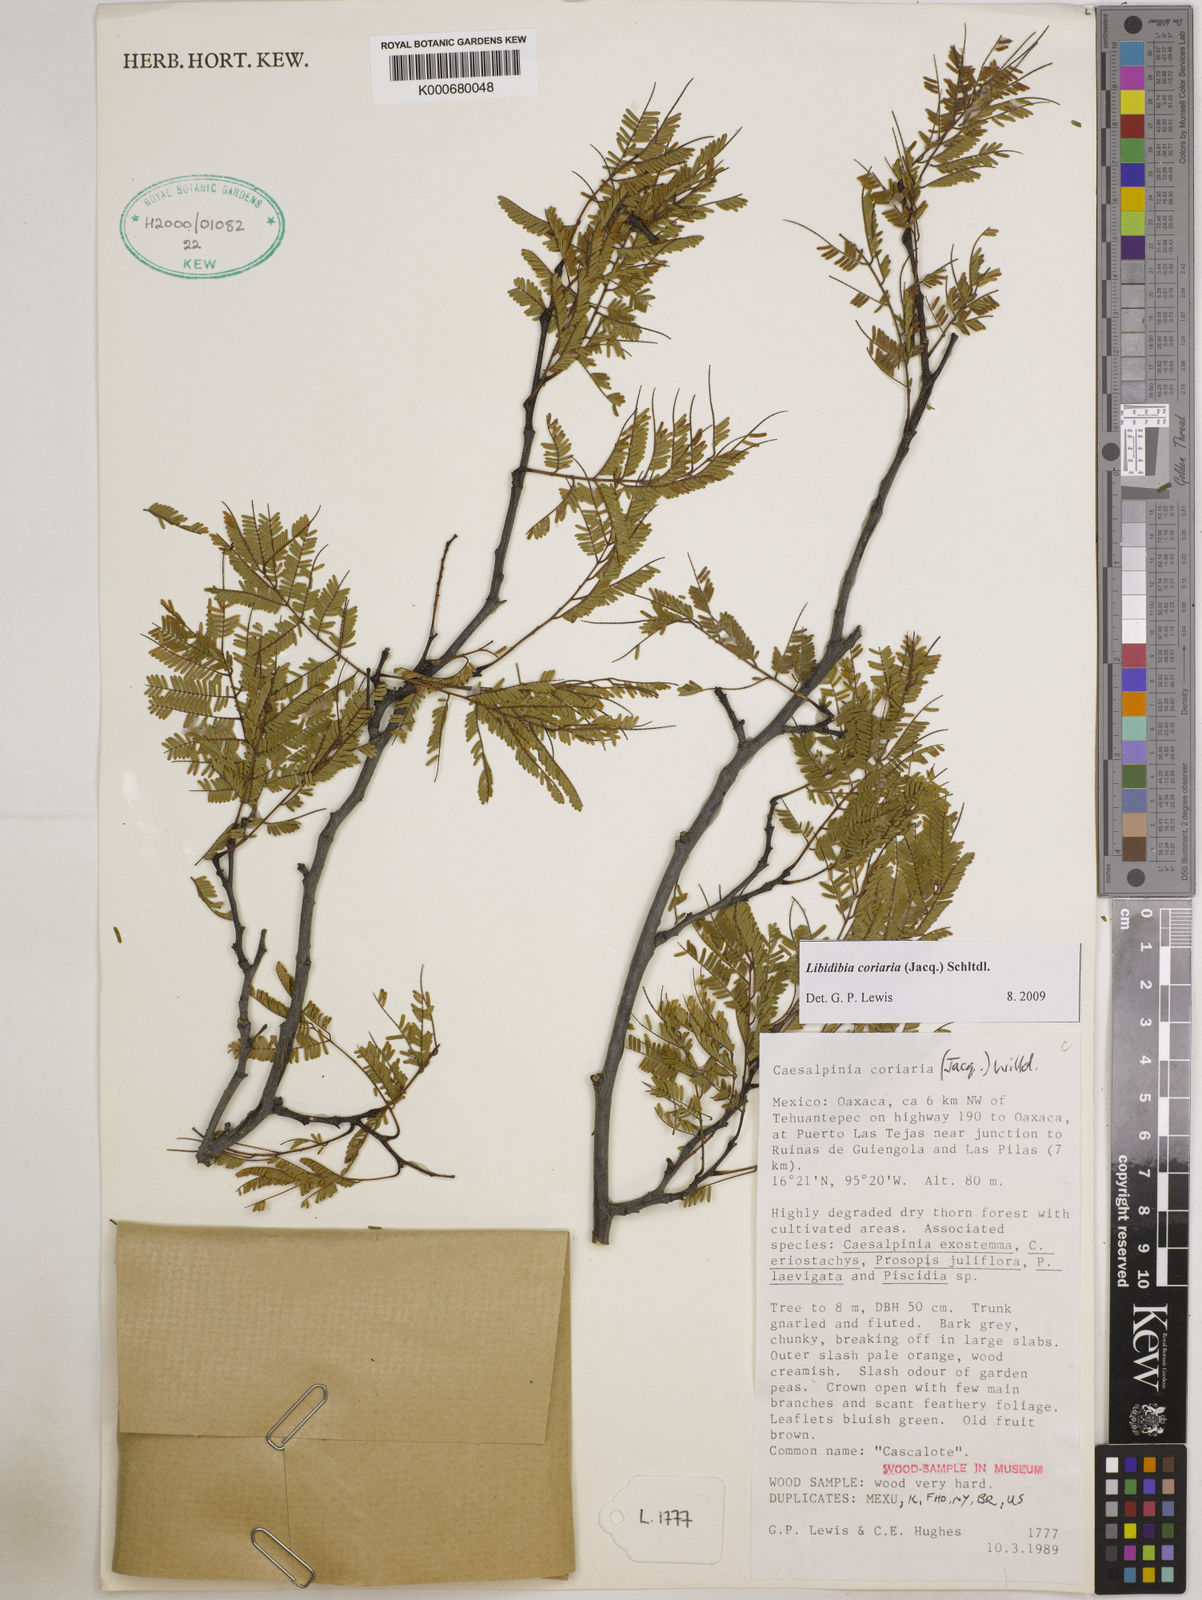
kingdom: Plantae
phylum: Tracheophyta
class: Magnoliopsida
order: Fabales
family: Fabaceae
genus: Libidibia
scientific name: Libidibia coriaria
